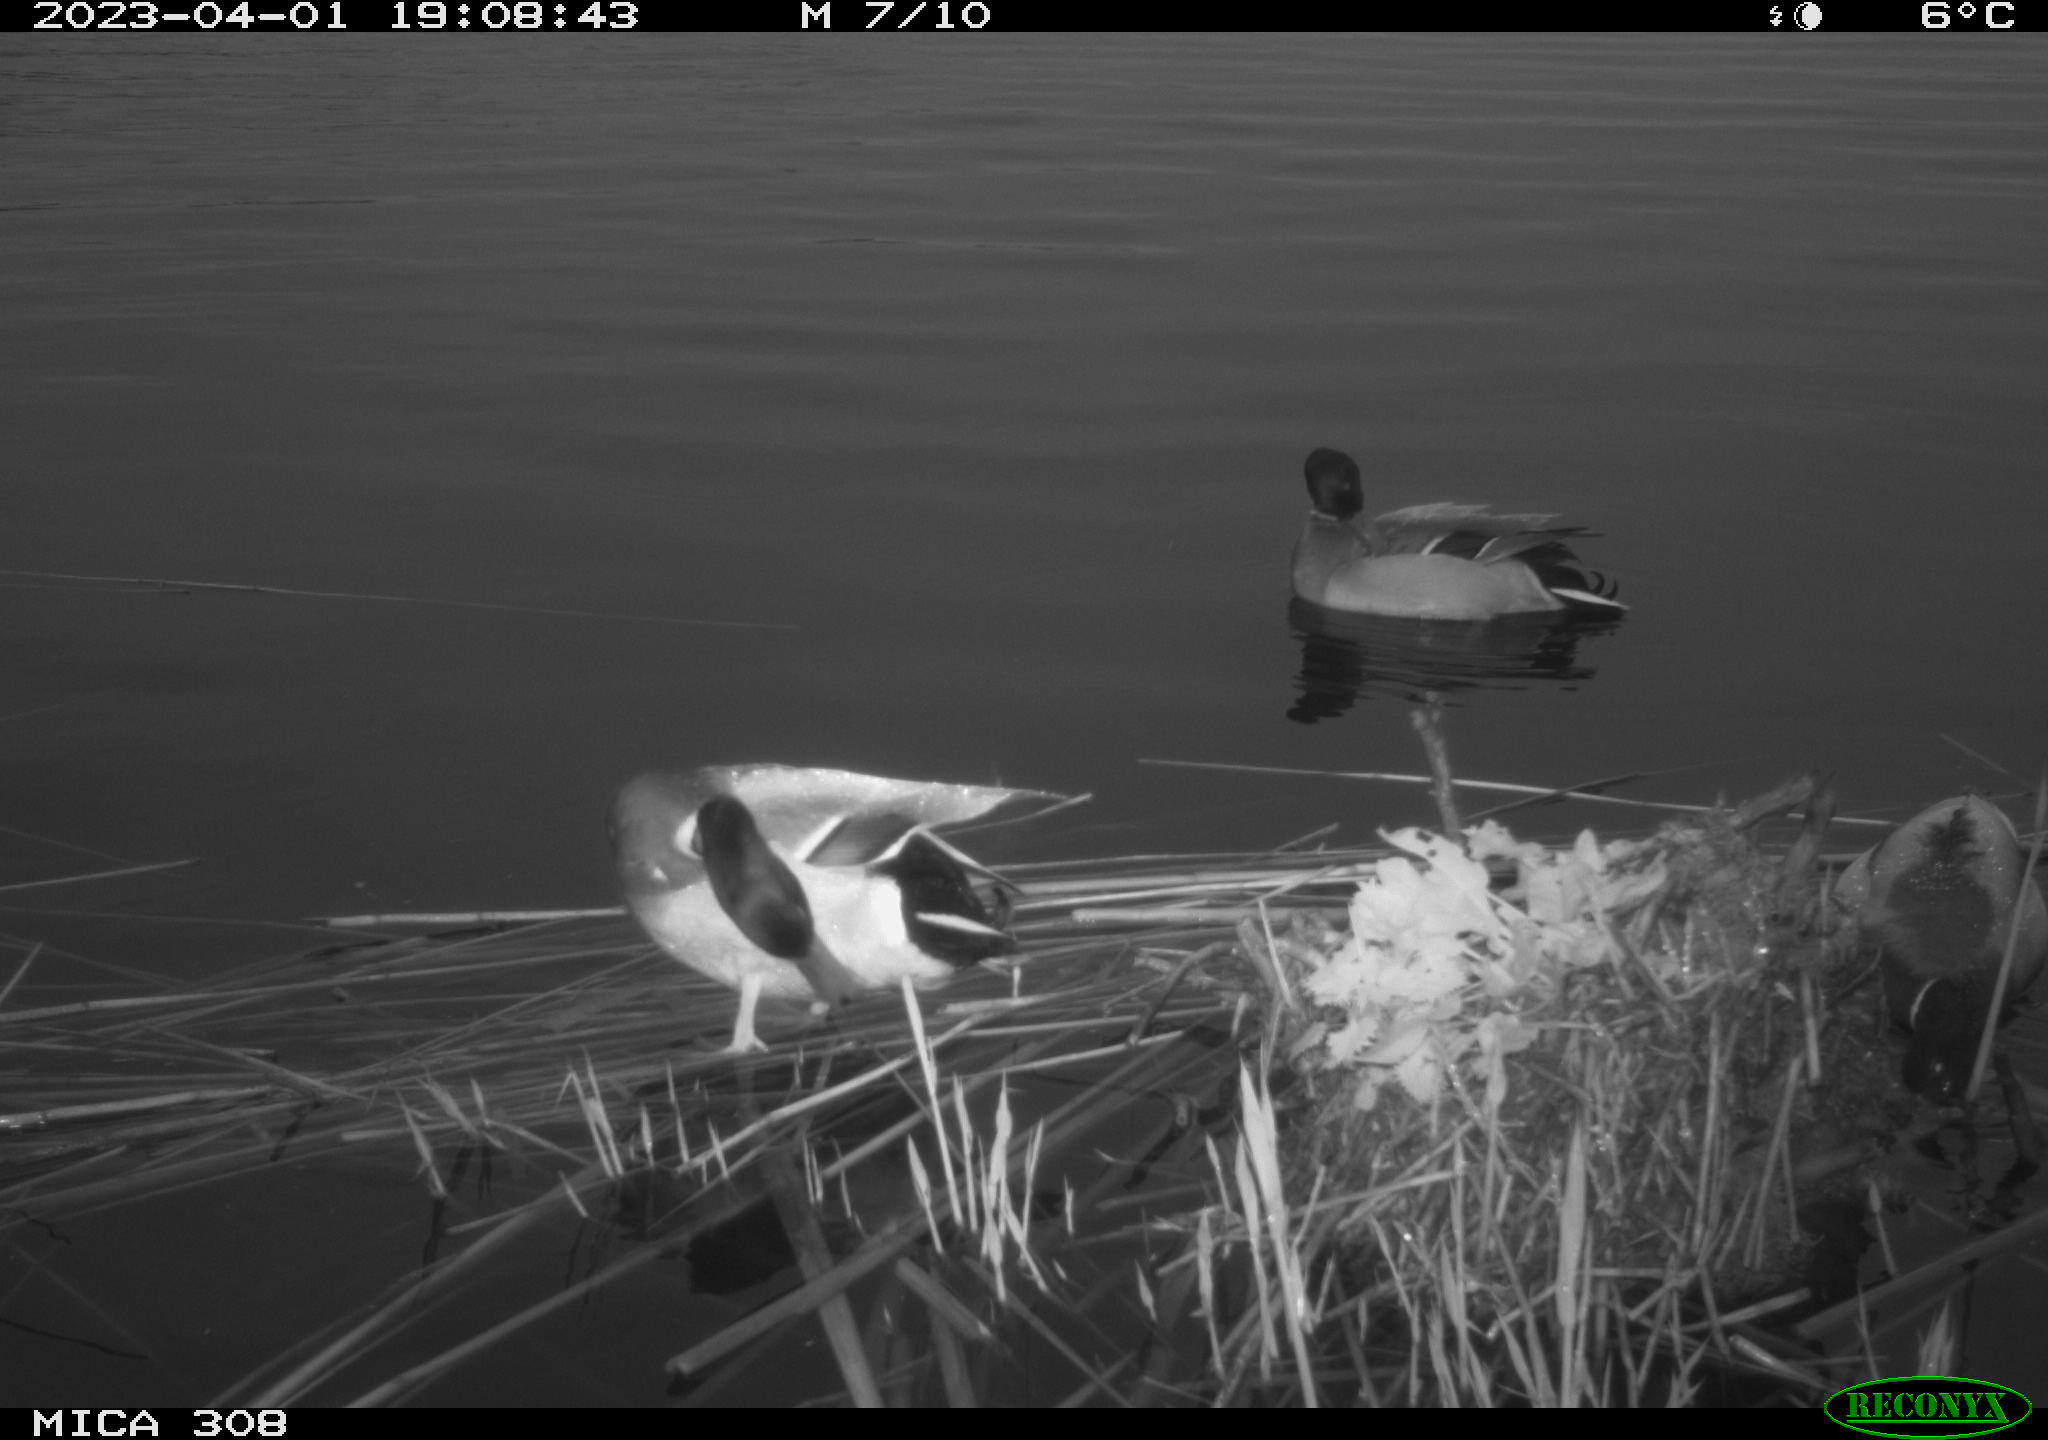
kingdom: Animalia
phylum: Chordata
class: Aves
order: Anseriformes
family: Anatidae
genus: Anas
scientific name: Anas
